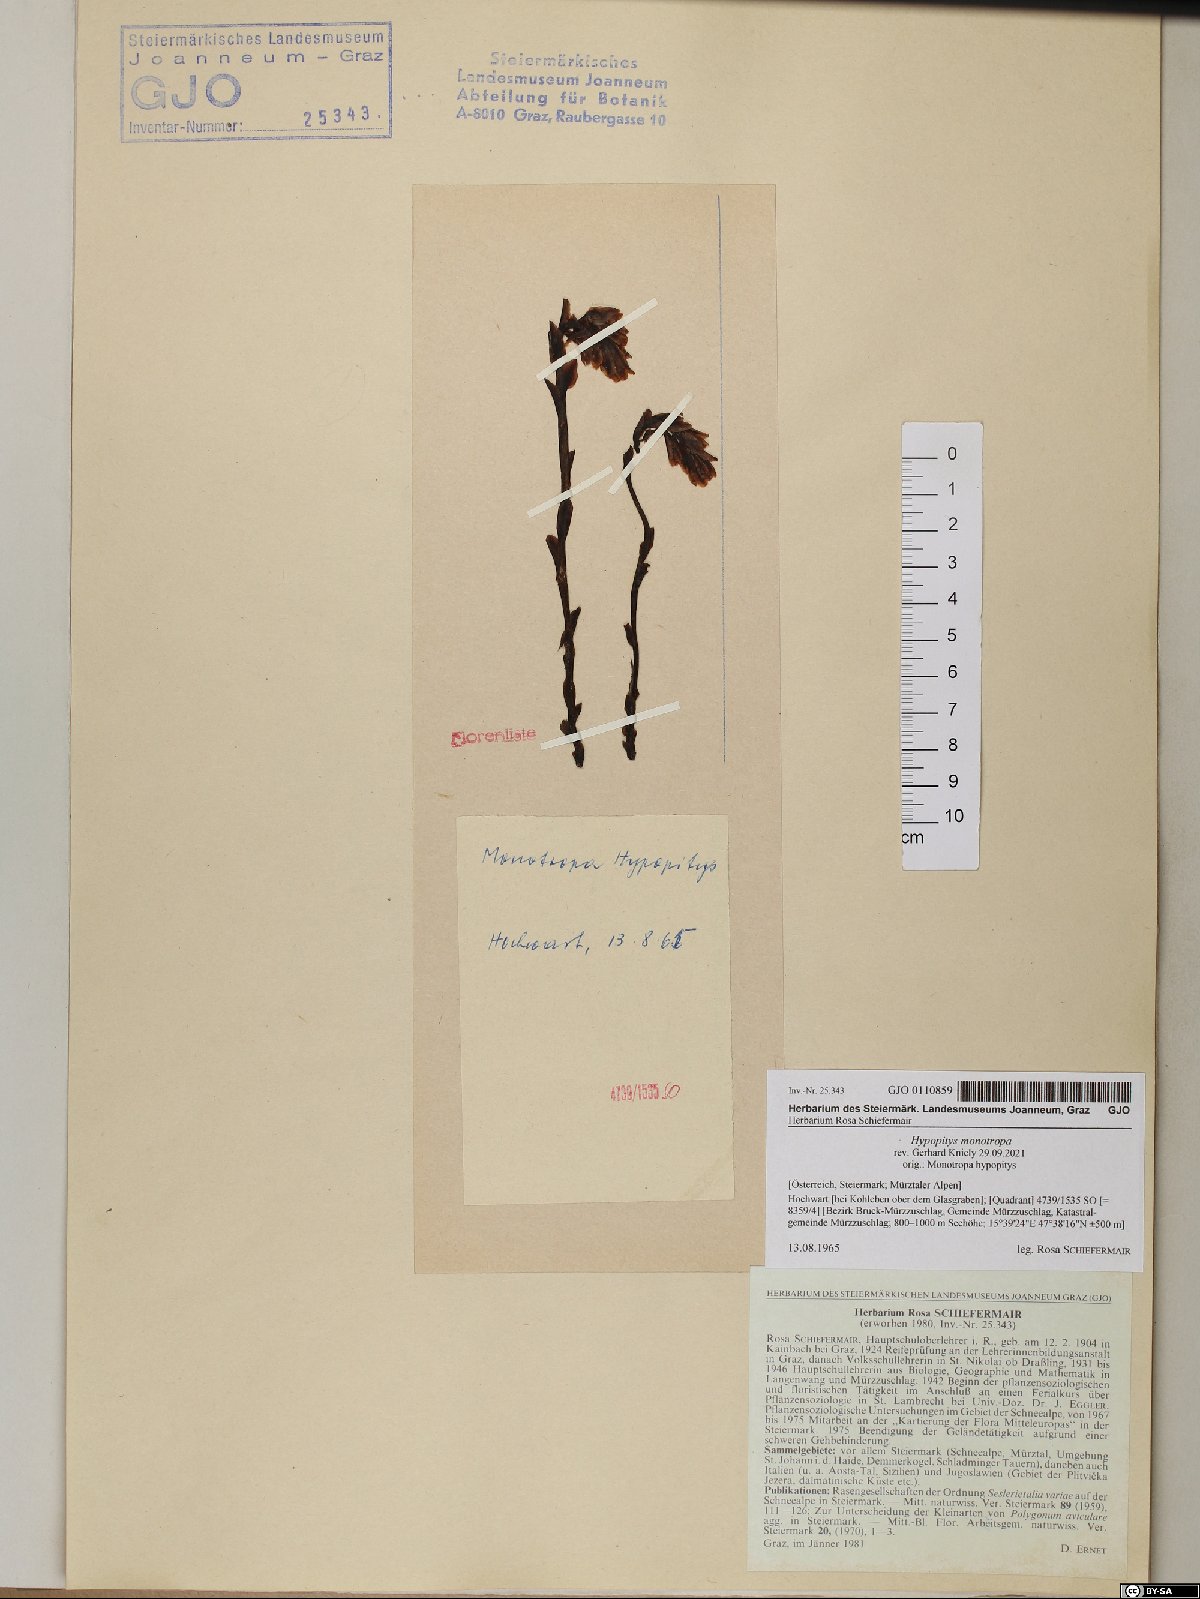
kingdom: Plantae
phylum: Tracheophyta
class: Magnoliopsida
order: Ericales
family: Ericaceae
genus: Hypopitys
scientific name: Hypopitys monotropa
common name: Yellow bird's-nest
